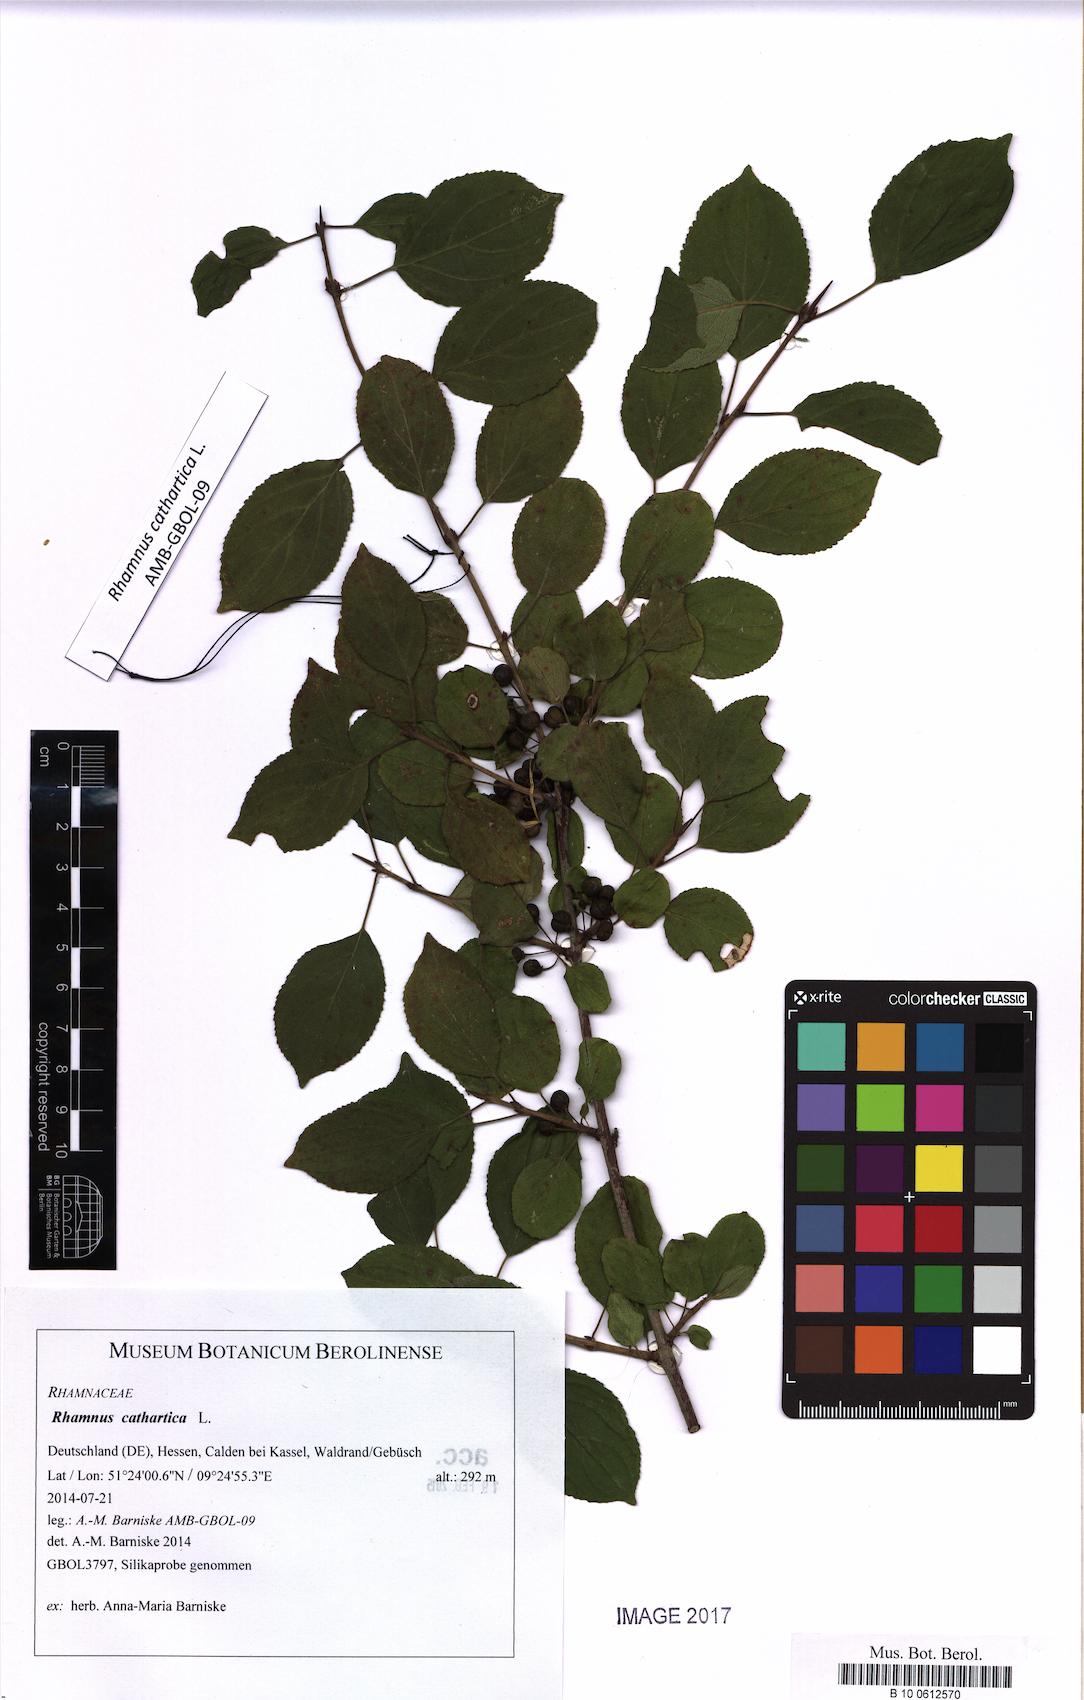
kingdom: Plantae
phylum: Tracheophyta
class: Magnoliopsida
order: Rosales
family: Rhamnaceae
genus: Rhamnus
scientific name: Rhamnus cathartica
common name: Common buckthorn
